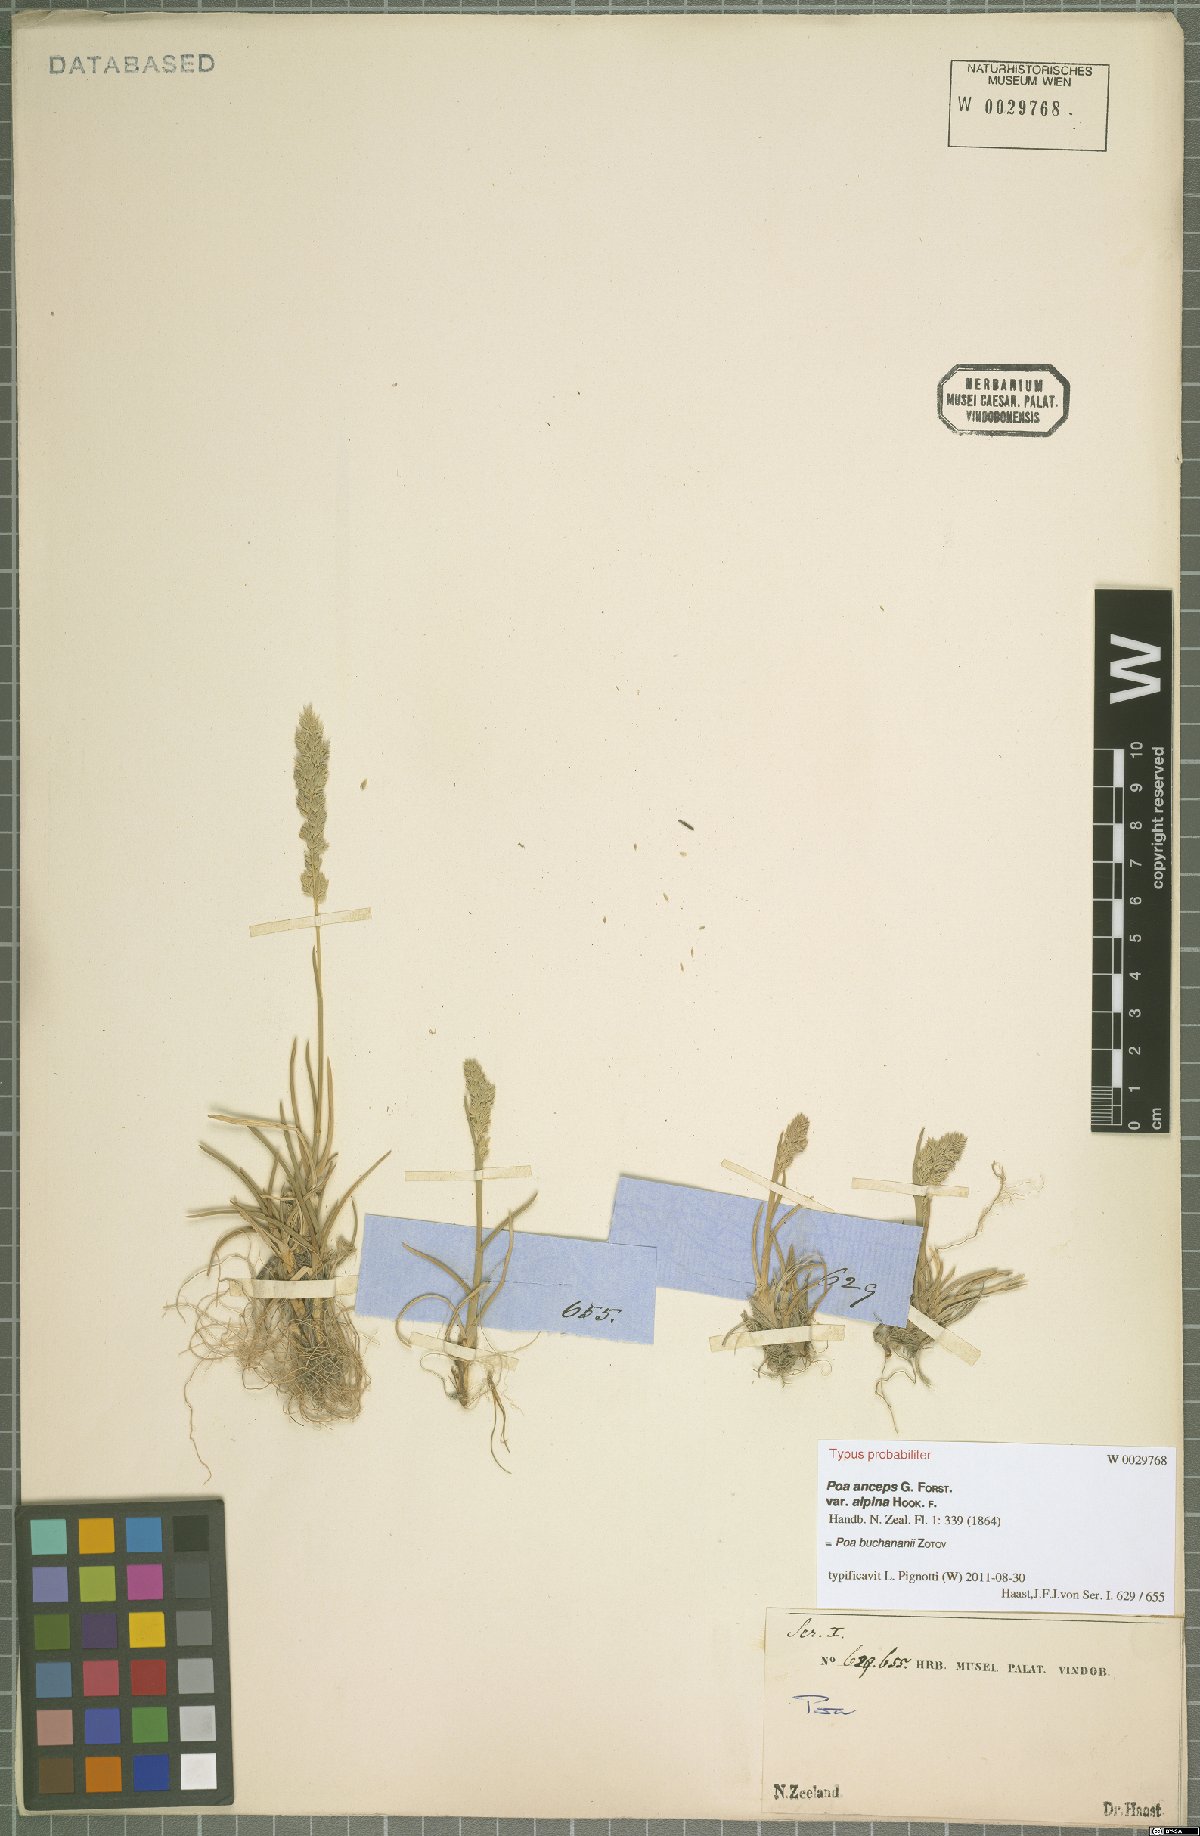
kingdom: Plantae
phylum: Tracheophyta
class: Liliopsida
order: Poales
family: Poaceae
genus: Poa
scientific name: Poa buchananii
